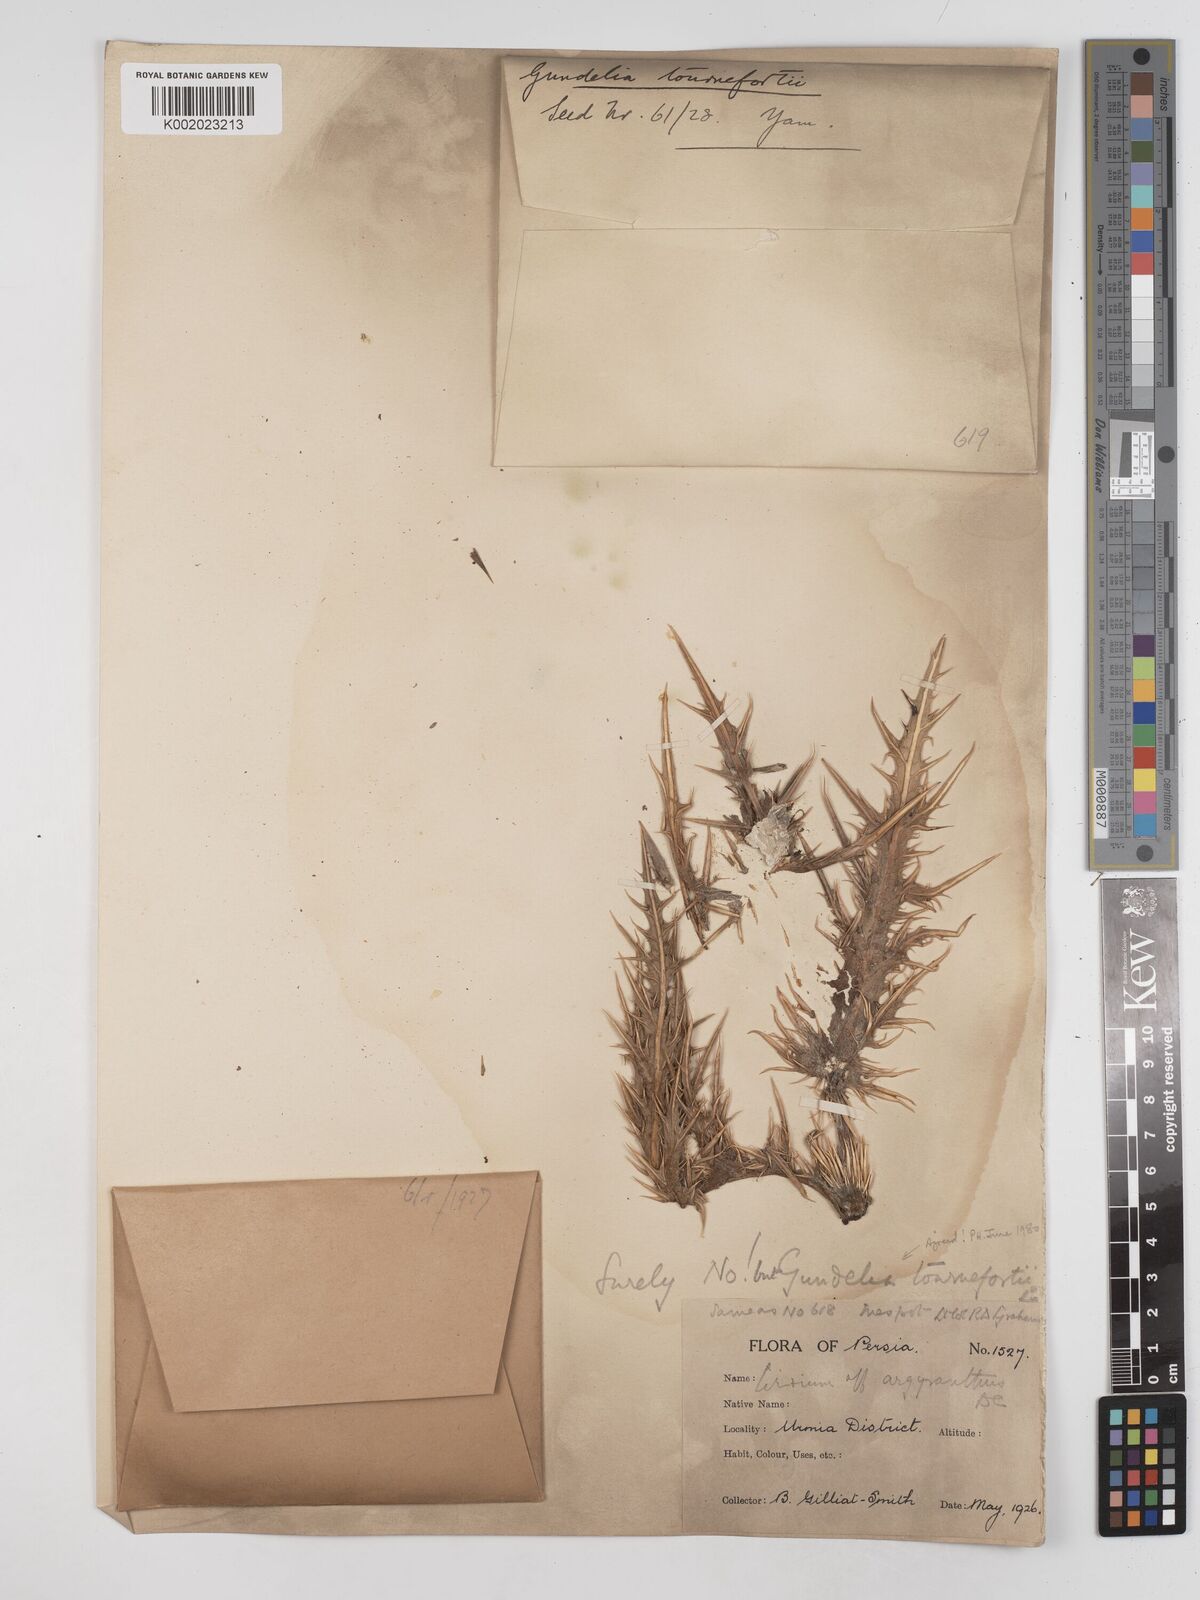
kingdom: Plantae
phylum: Tracheophyta
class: Magnoliopsida
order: Asterales
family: Asteraceae
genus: Gundelia
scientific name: Gundelia tournefortii
